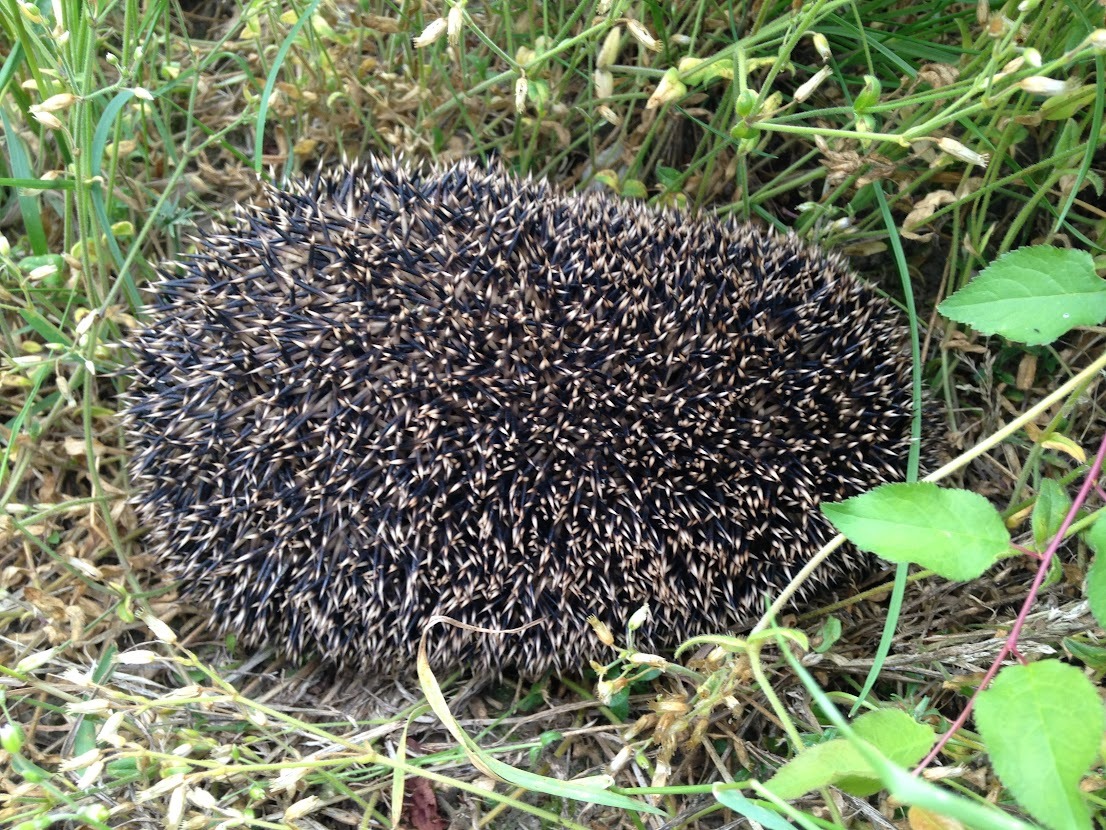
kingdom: Animalia
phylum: Chordata
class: Mammalia
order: Erinaceomorpha
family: Erinaceidae
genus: Erinaceus
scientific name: Erinaceus europaeus
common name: Pindsvin
